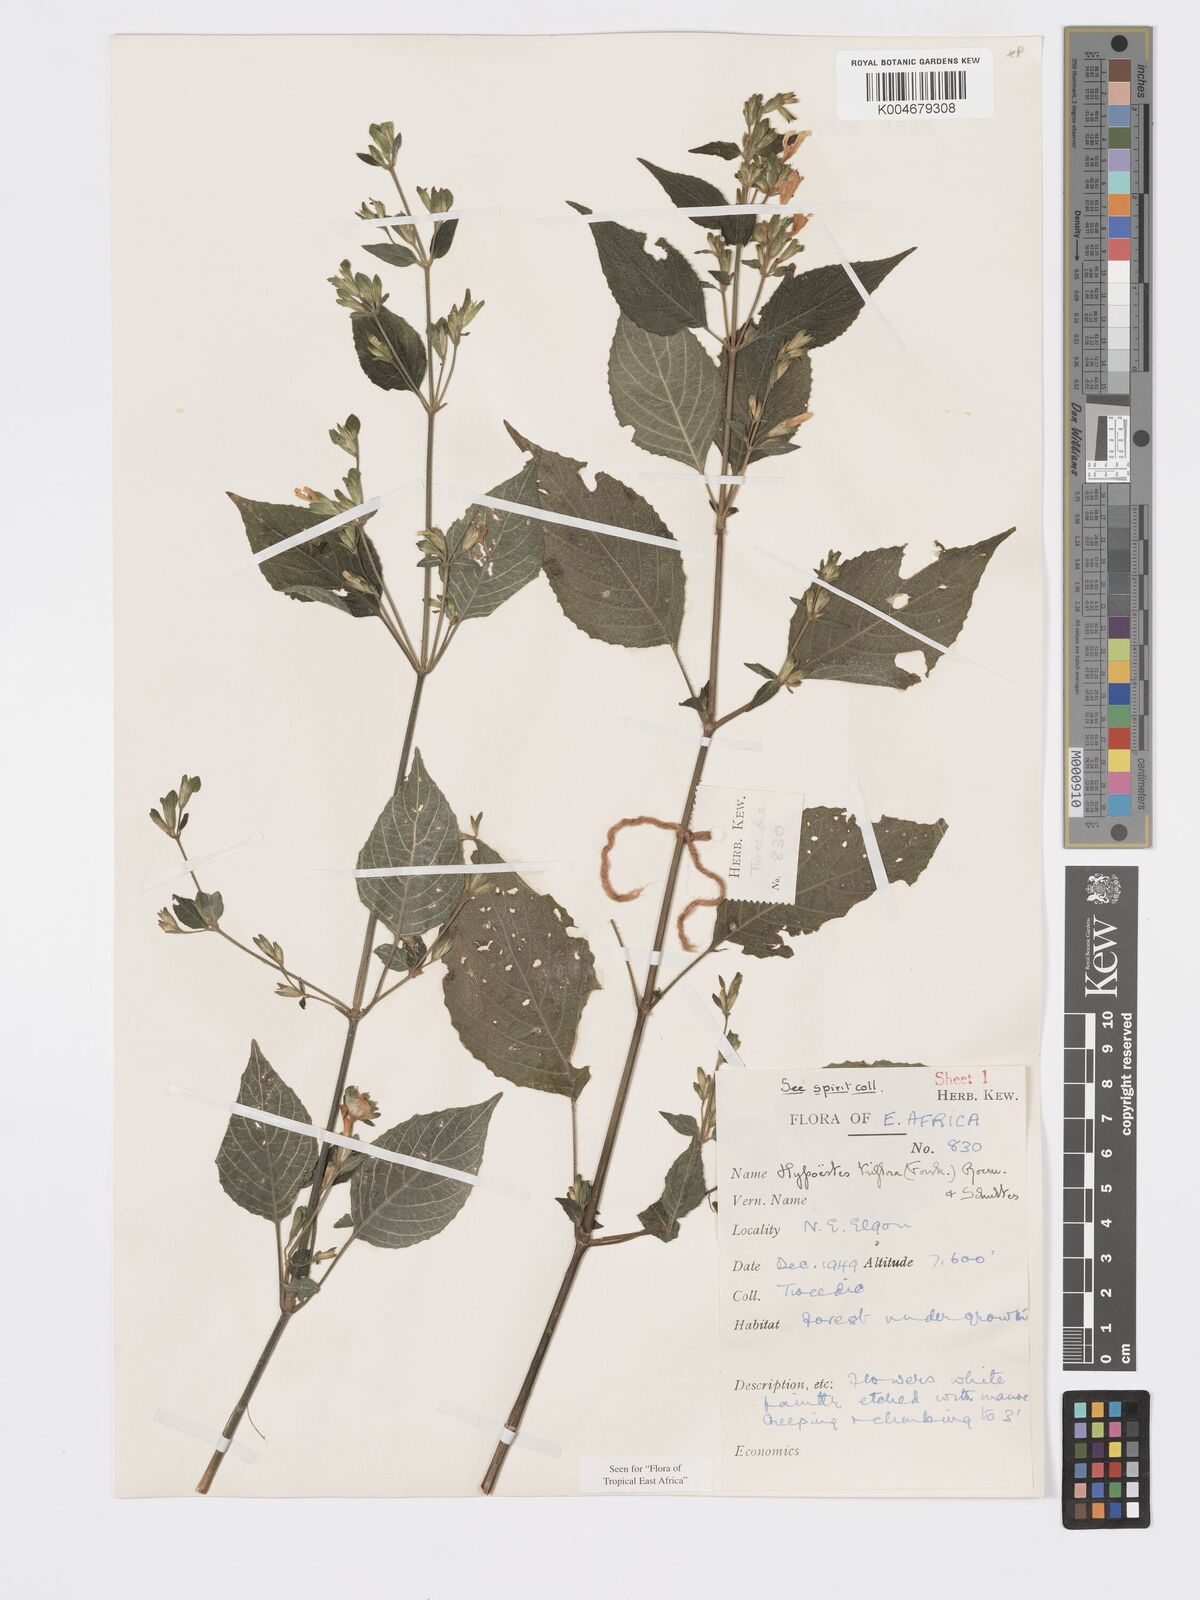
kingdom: Plantae
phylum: Tracheophyta
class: Magnoliopsida
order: Lamiales
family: Acanthaceae
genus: Hypoestes
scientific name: Hypoestes triflora
